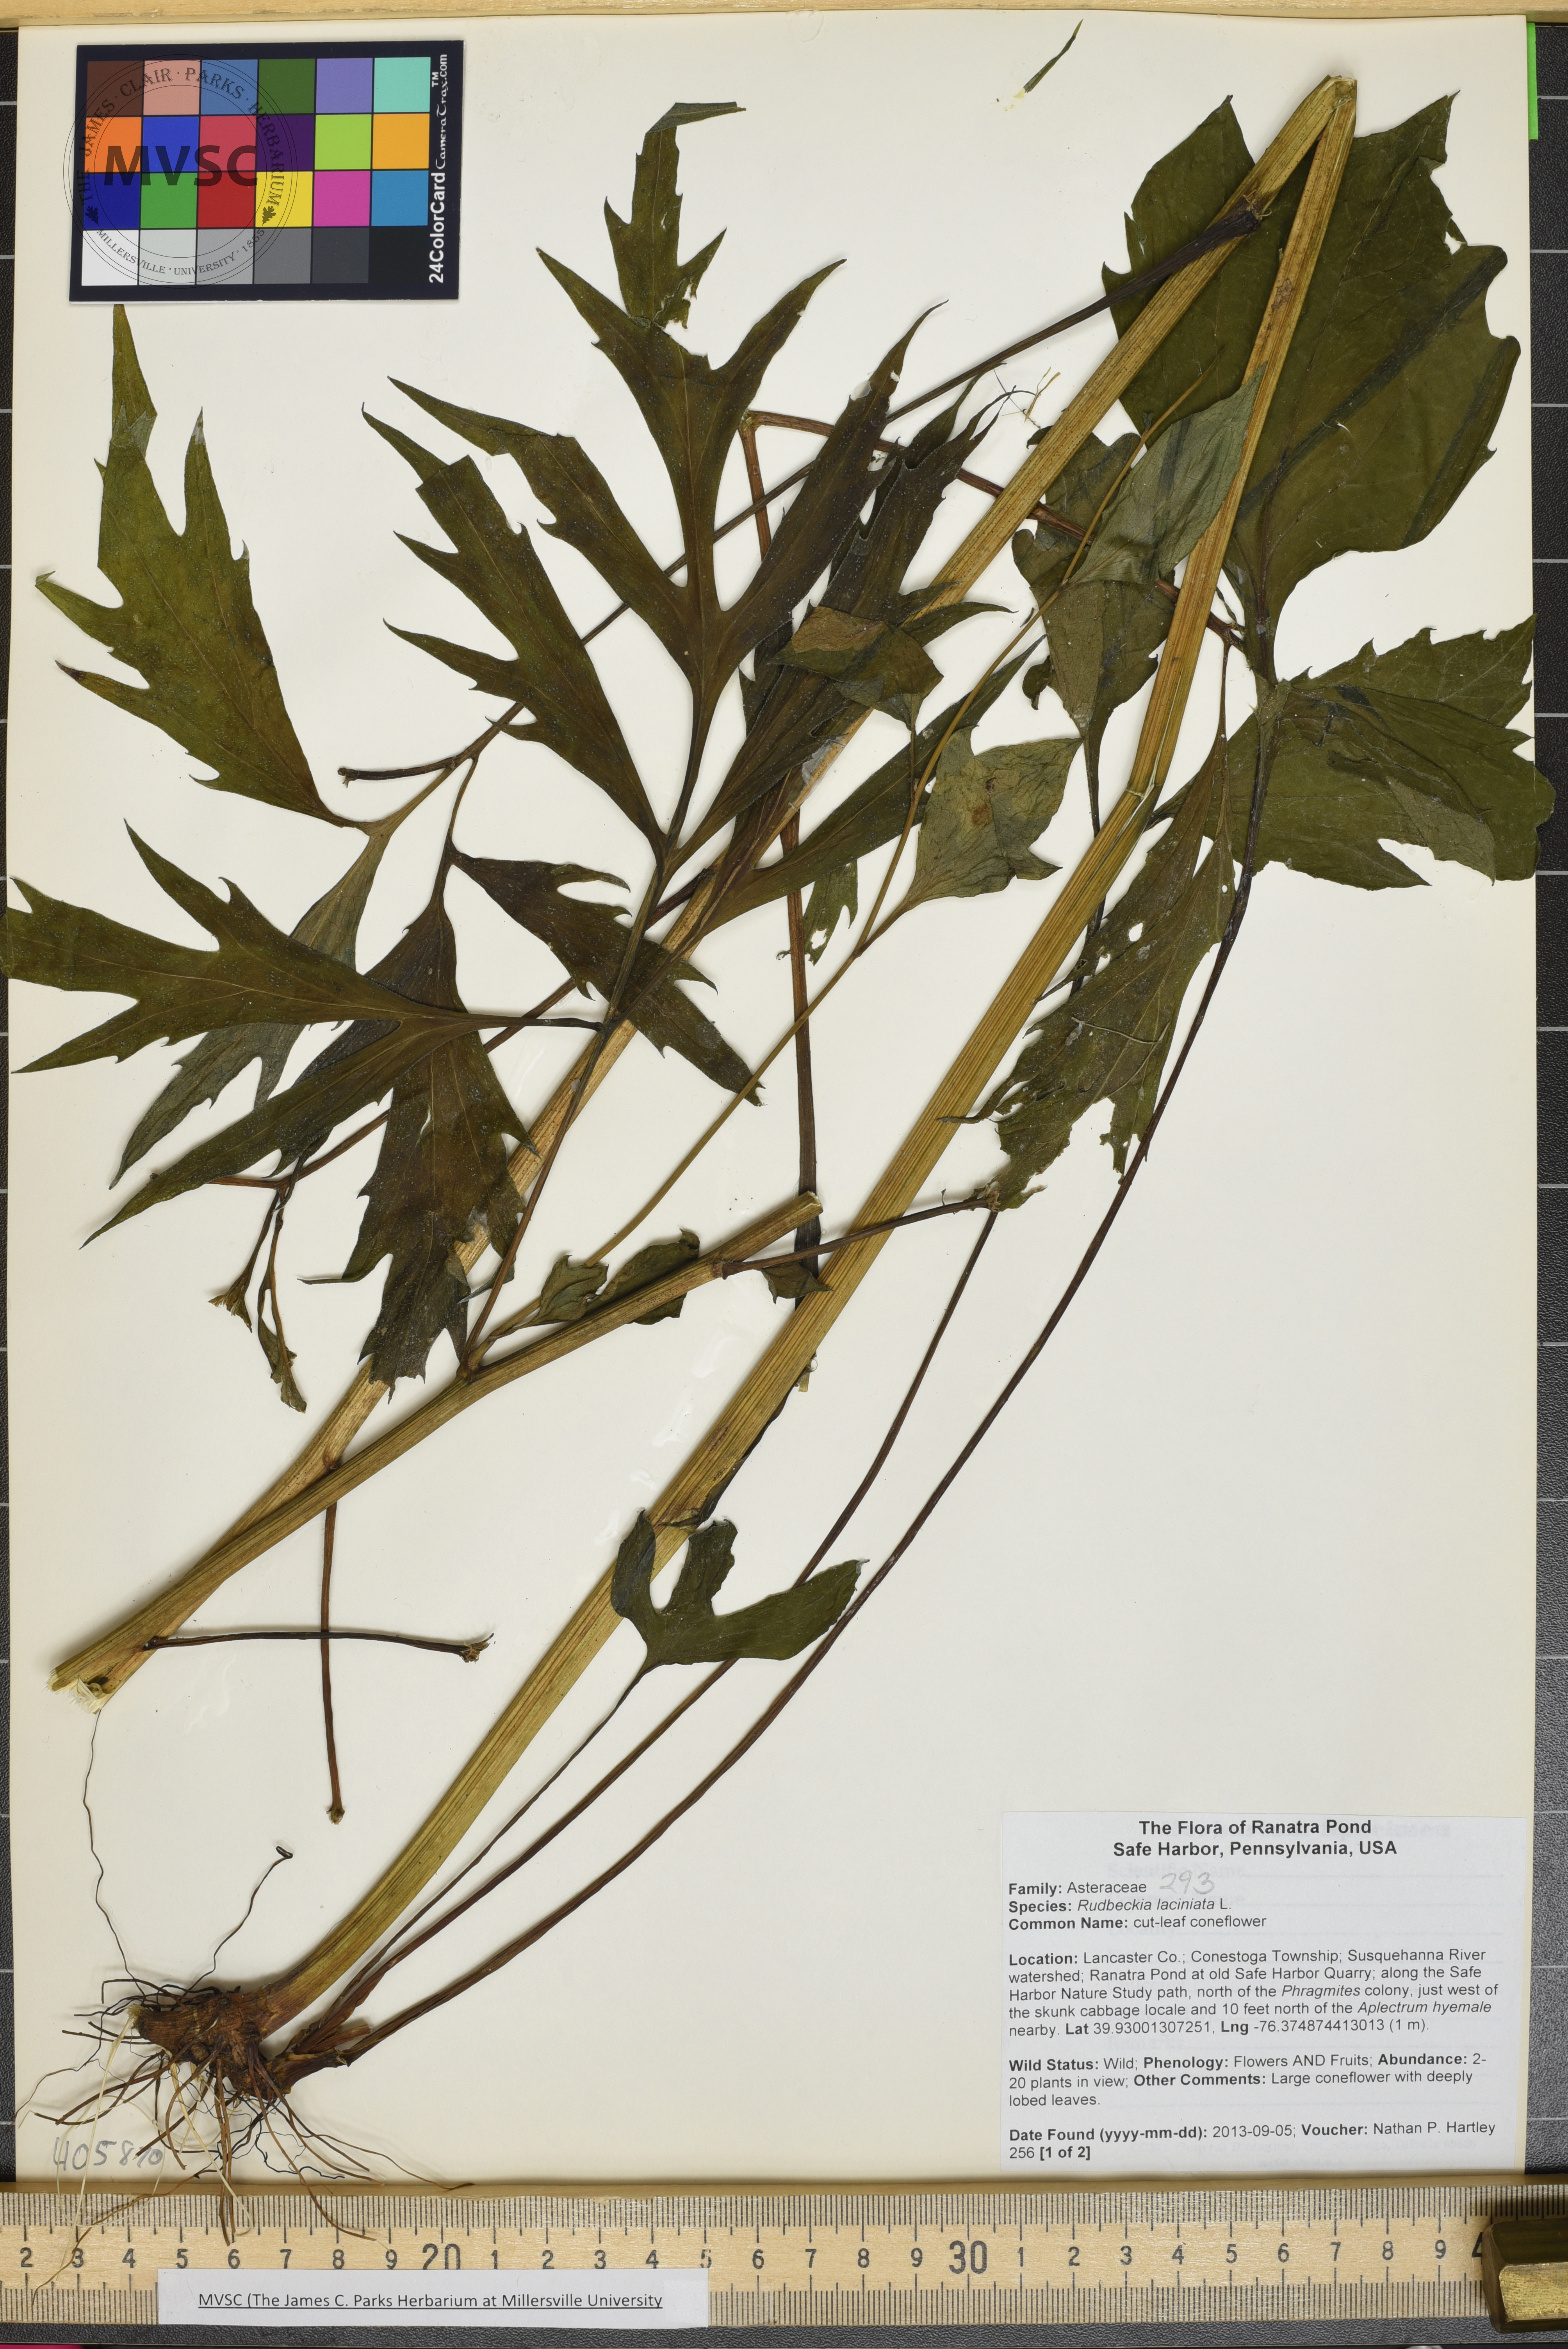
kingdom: Plantae
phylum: Tracheophyta
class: Magnoliopsida
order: Asterales
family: Asteraceae
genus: Rudbeckia
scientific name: Rudbeckia laciniata
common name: cutleaf coneflower
